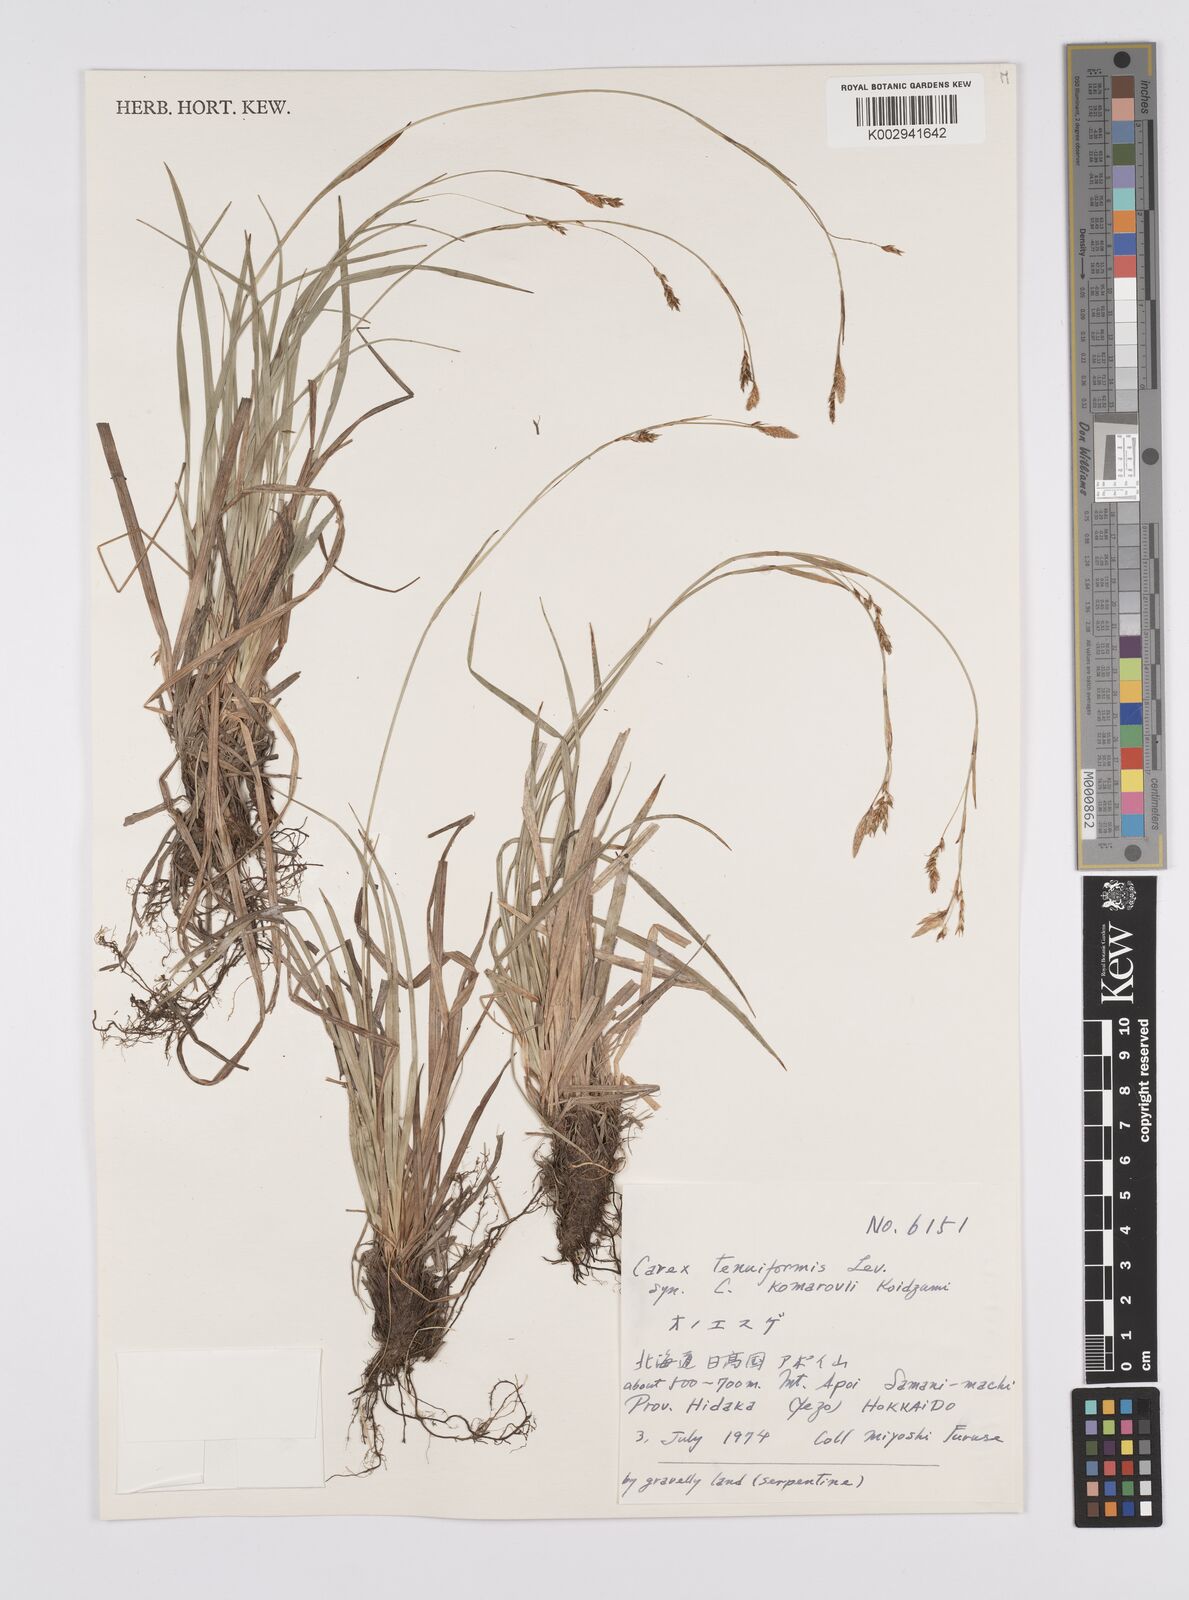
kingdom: Plantae
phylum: Tracheophyta
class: Liliopsida
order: Poales
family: Cyperaceae
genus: Carex
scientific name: Carex tenuiformis
